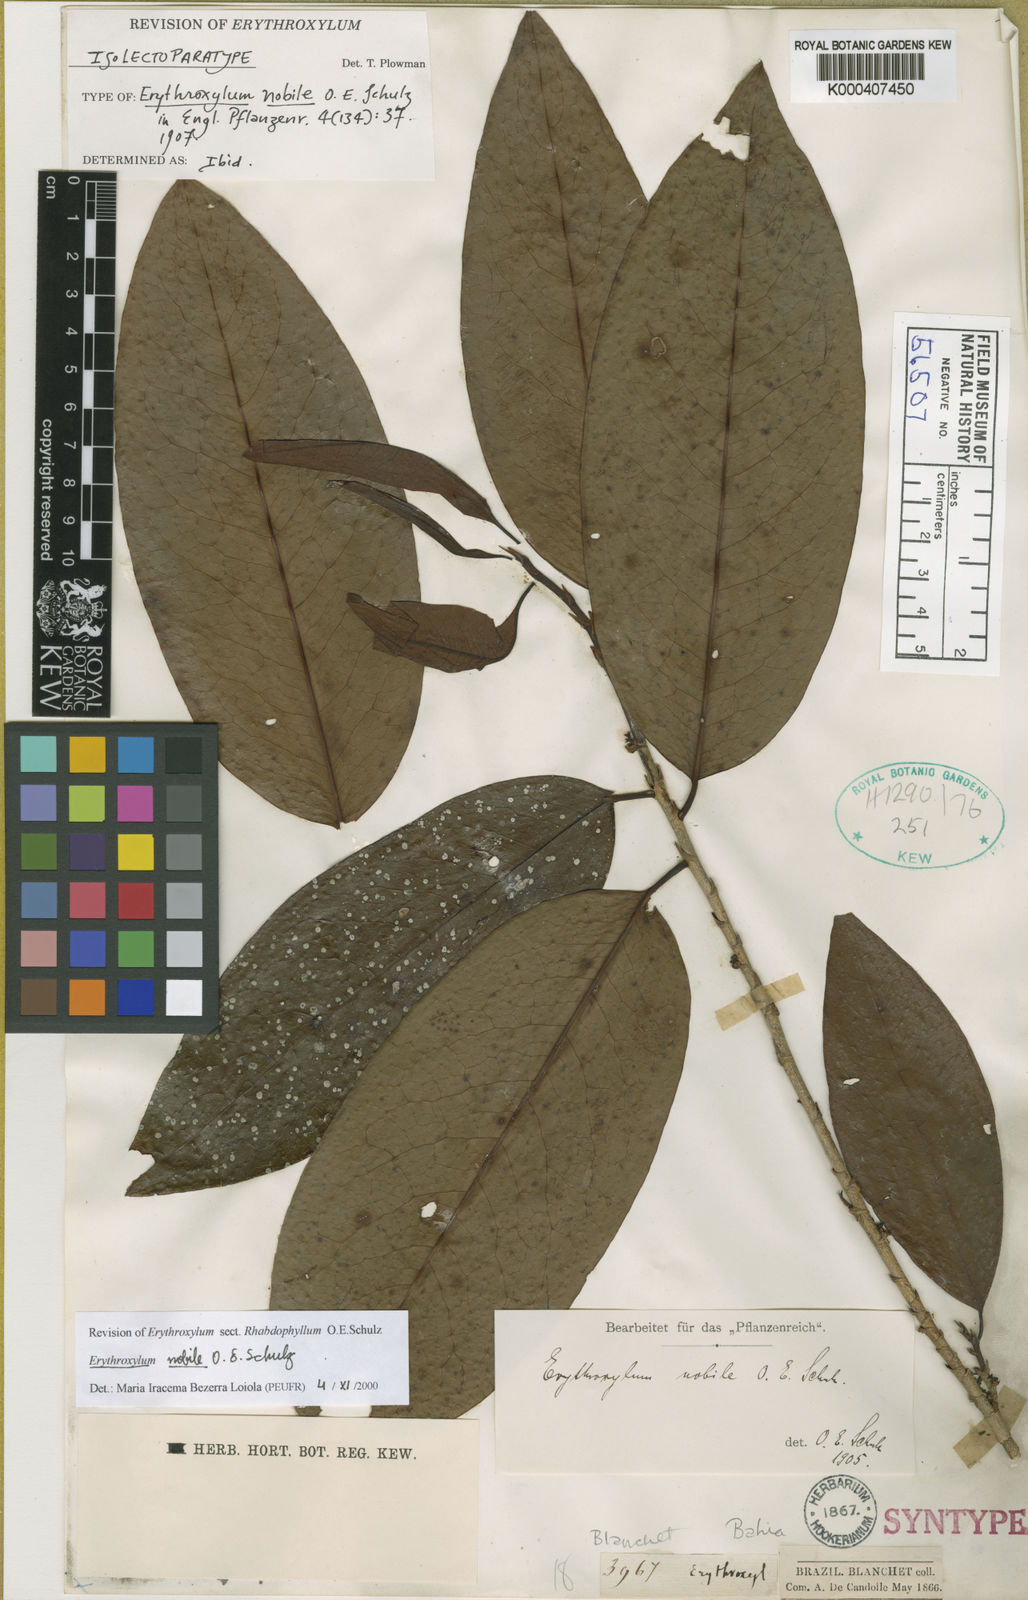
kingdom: Plantae
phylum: Tracheophyta
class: Magnoliopsida
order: Malpighiales
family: Erythroxylaceae
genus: Erythroxylum
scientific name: Erythroxylum nobile
